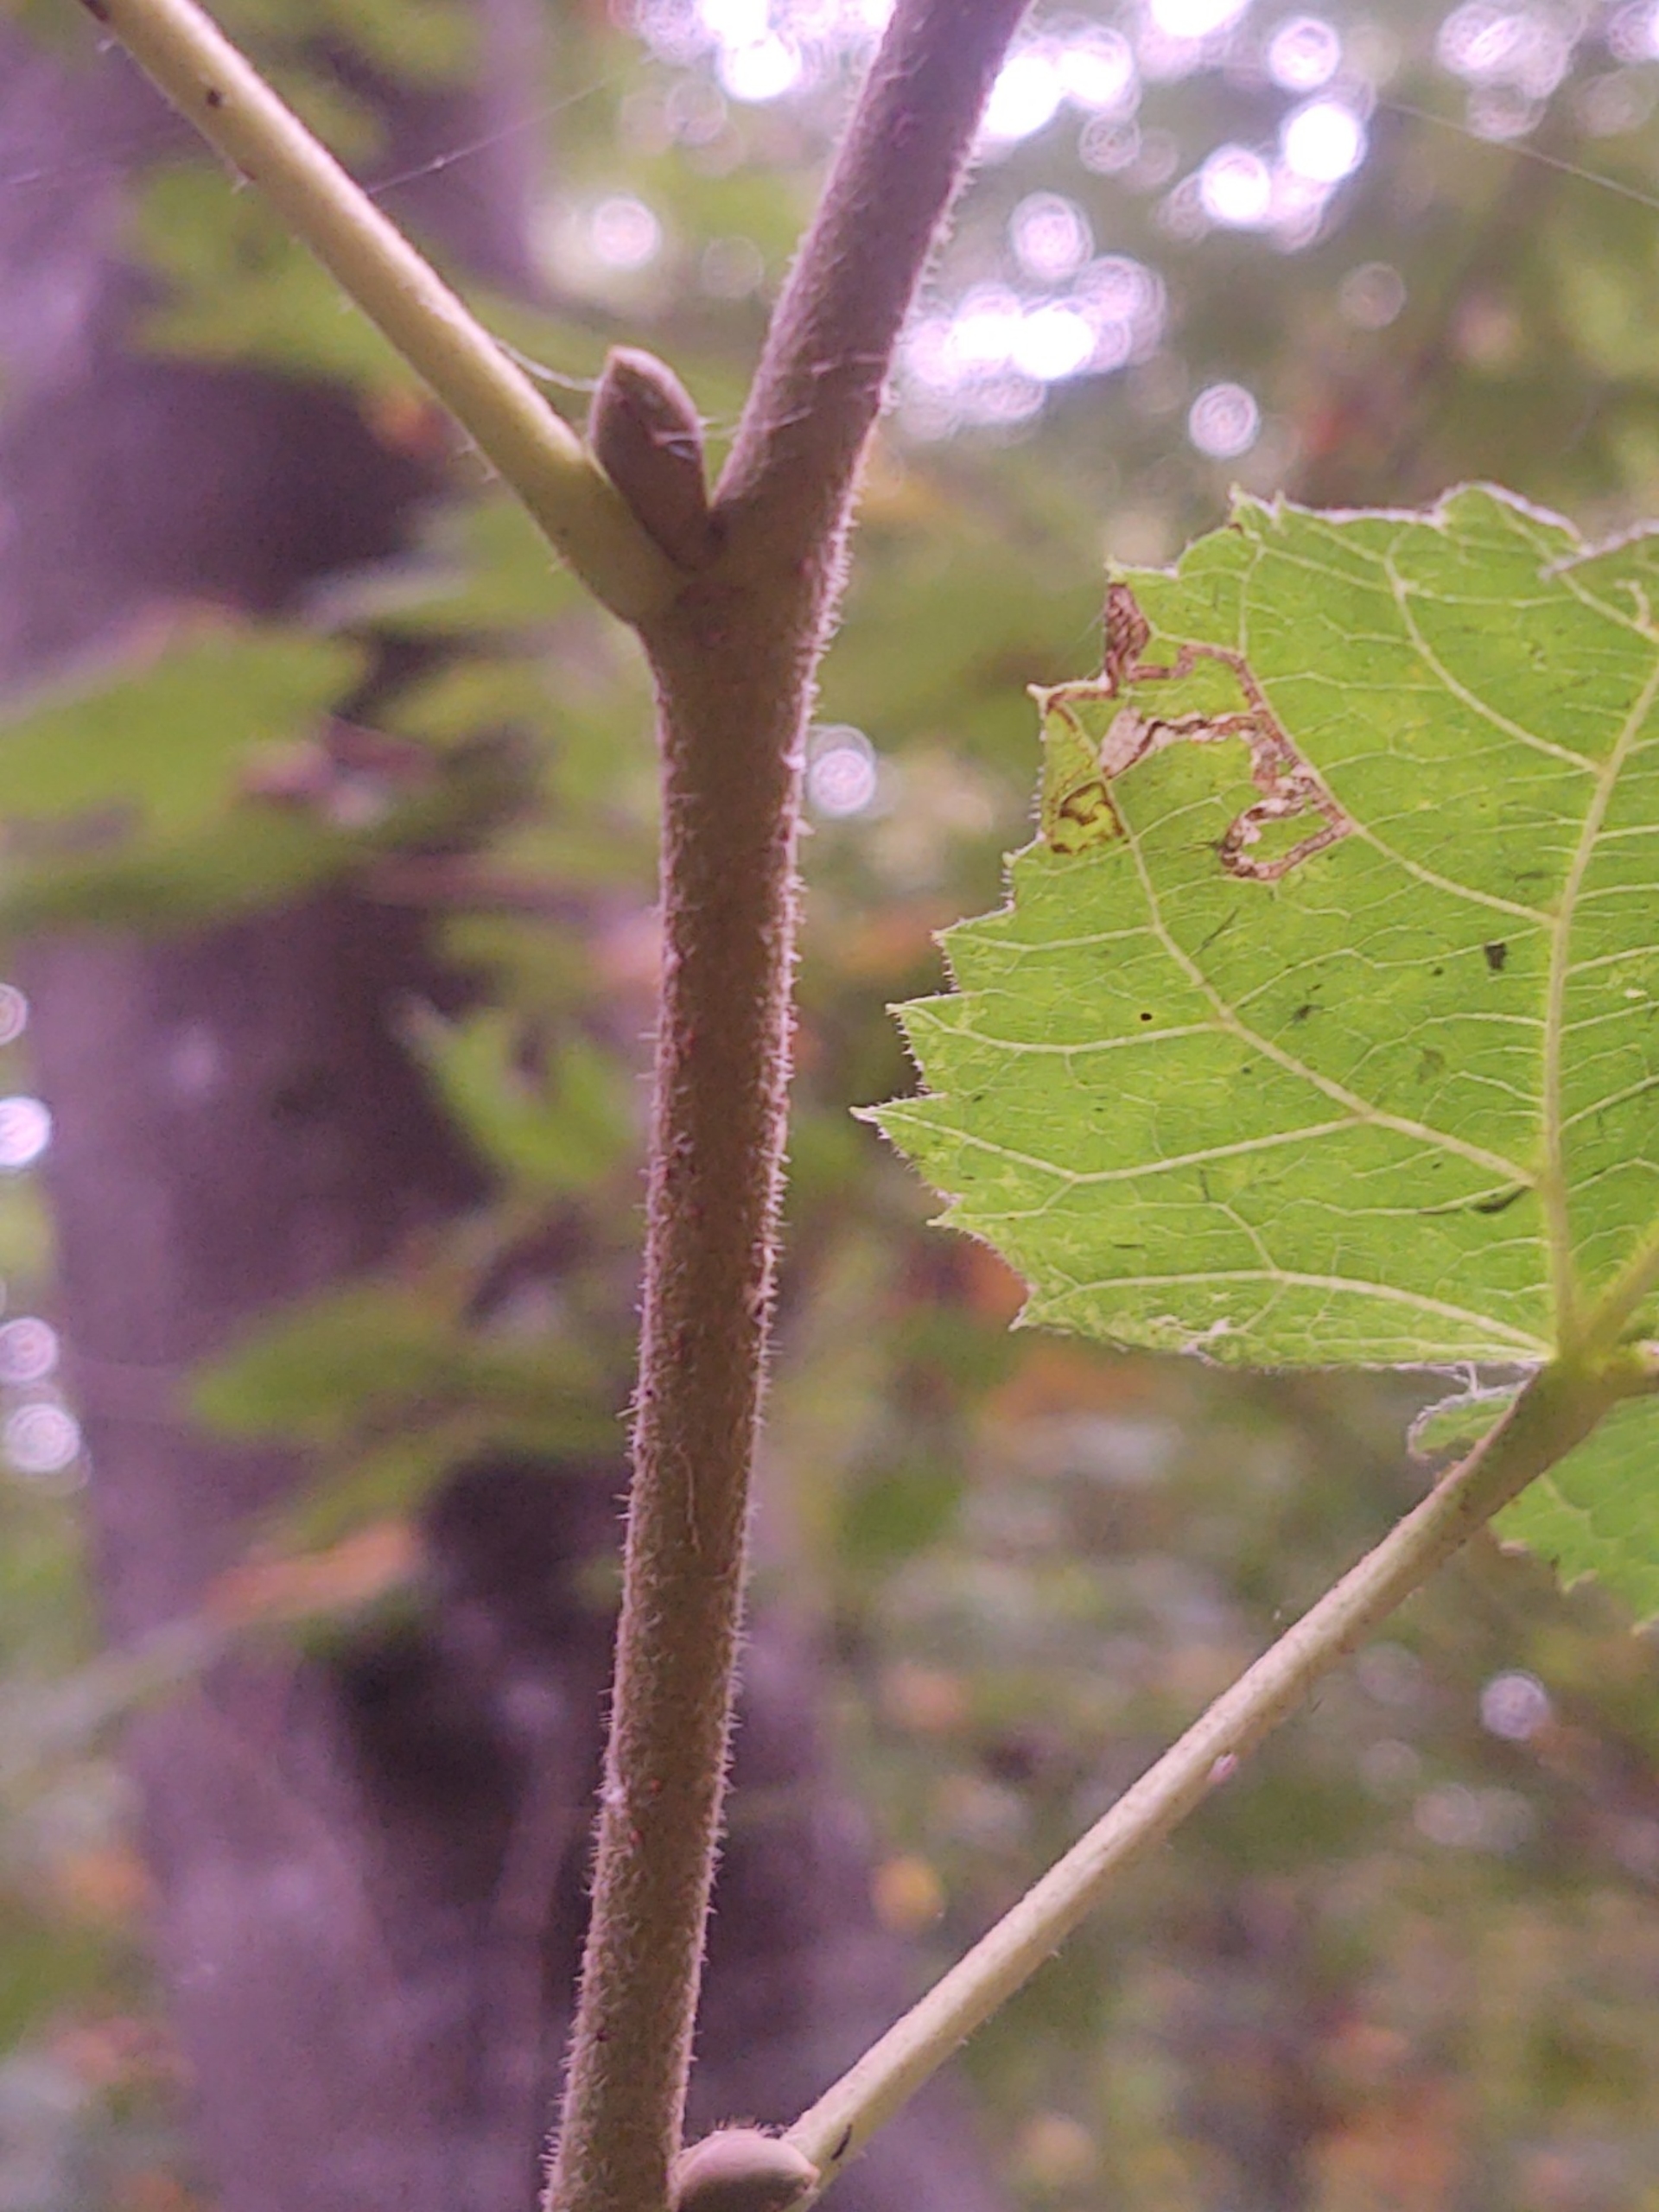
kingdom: Plantae
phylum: Tracheophyta
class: Magnoliopsida
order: Malvales
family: Malvaceae
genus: Tilia
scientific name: Tilia platyphyllos
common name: Storbladet lind
